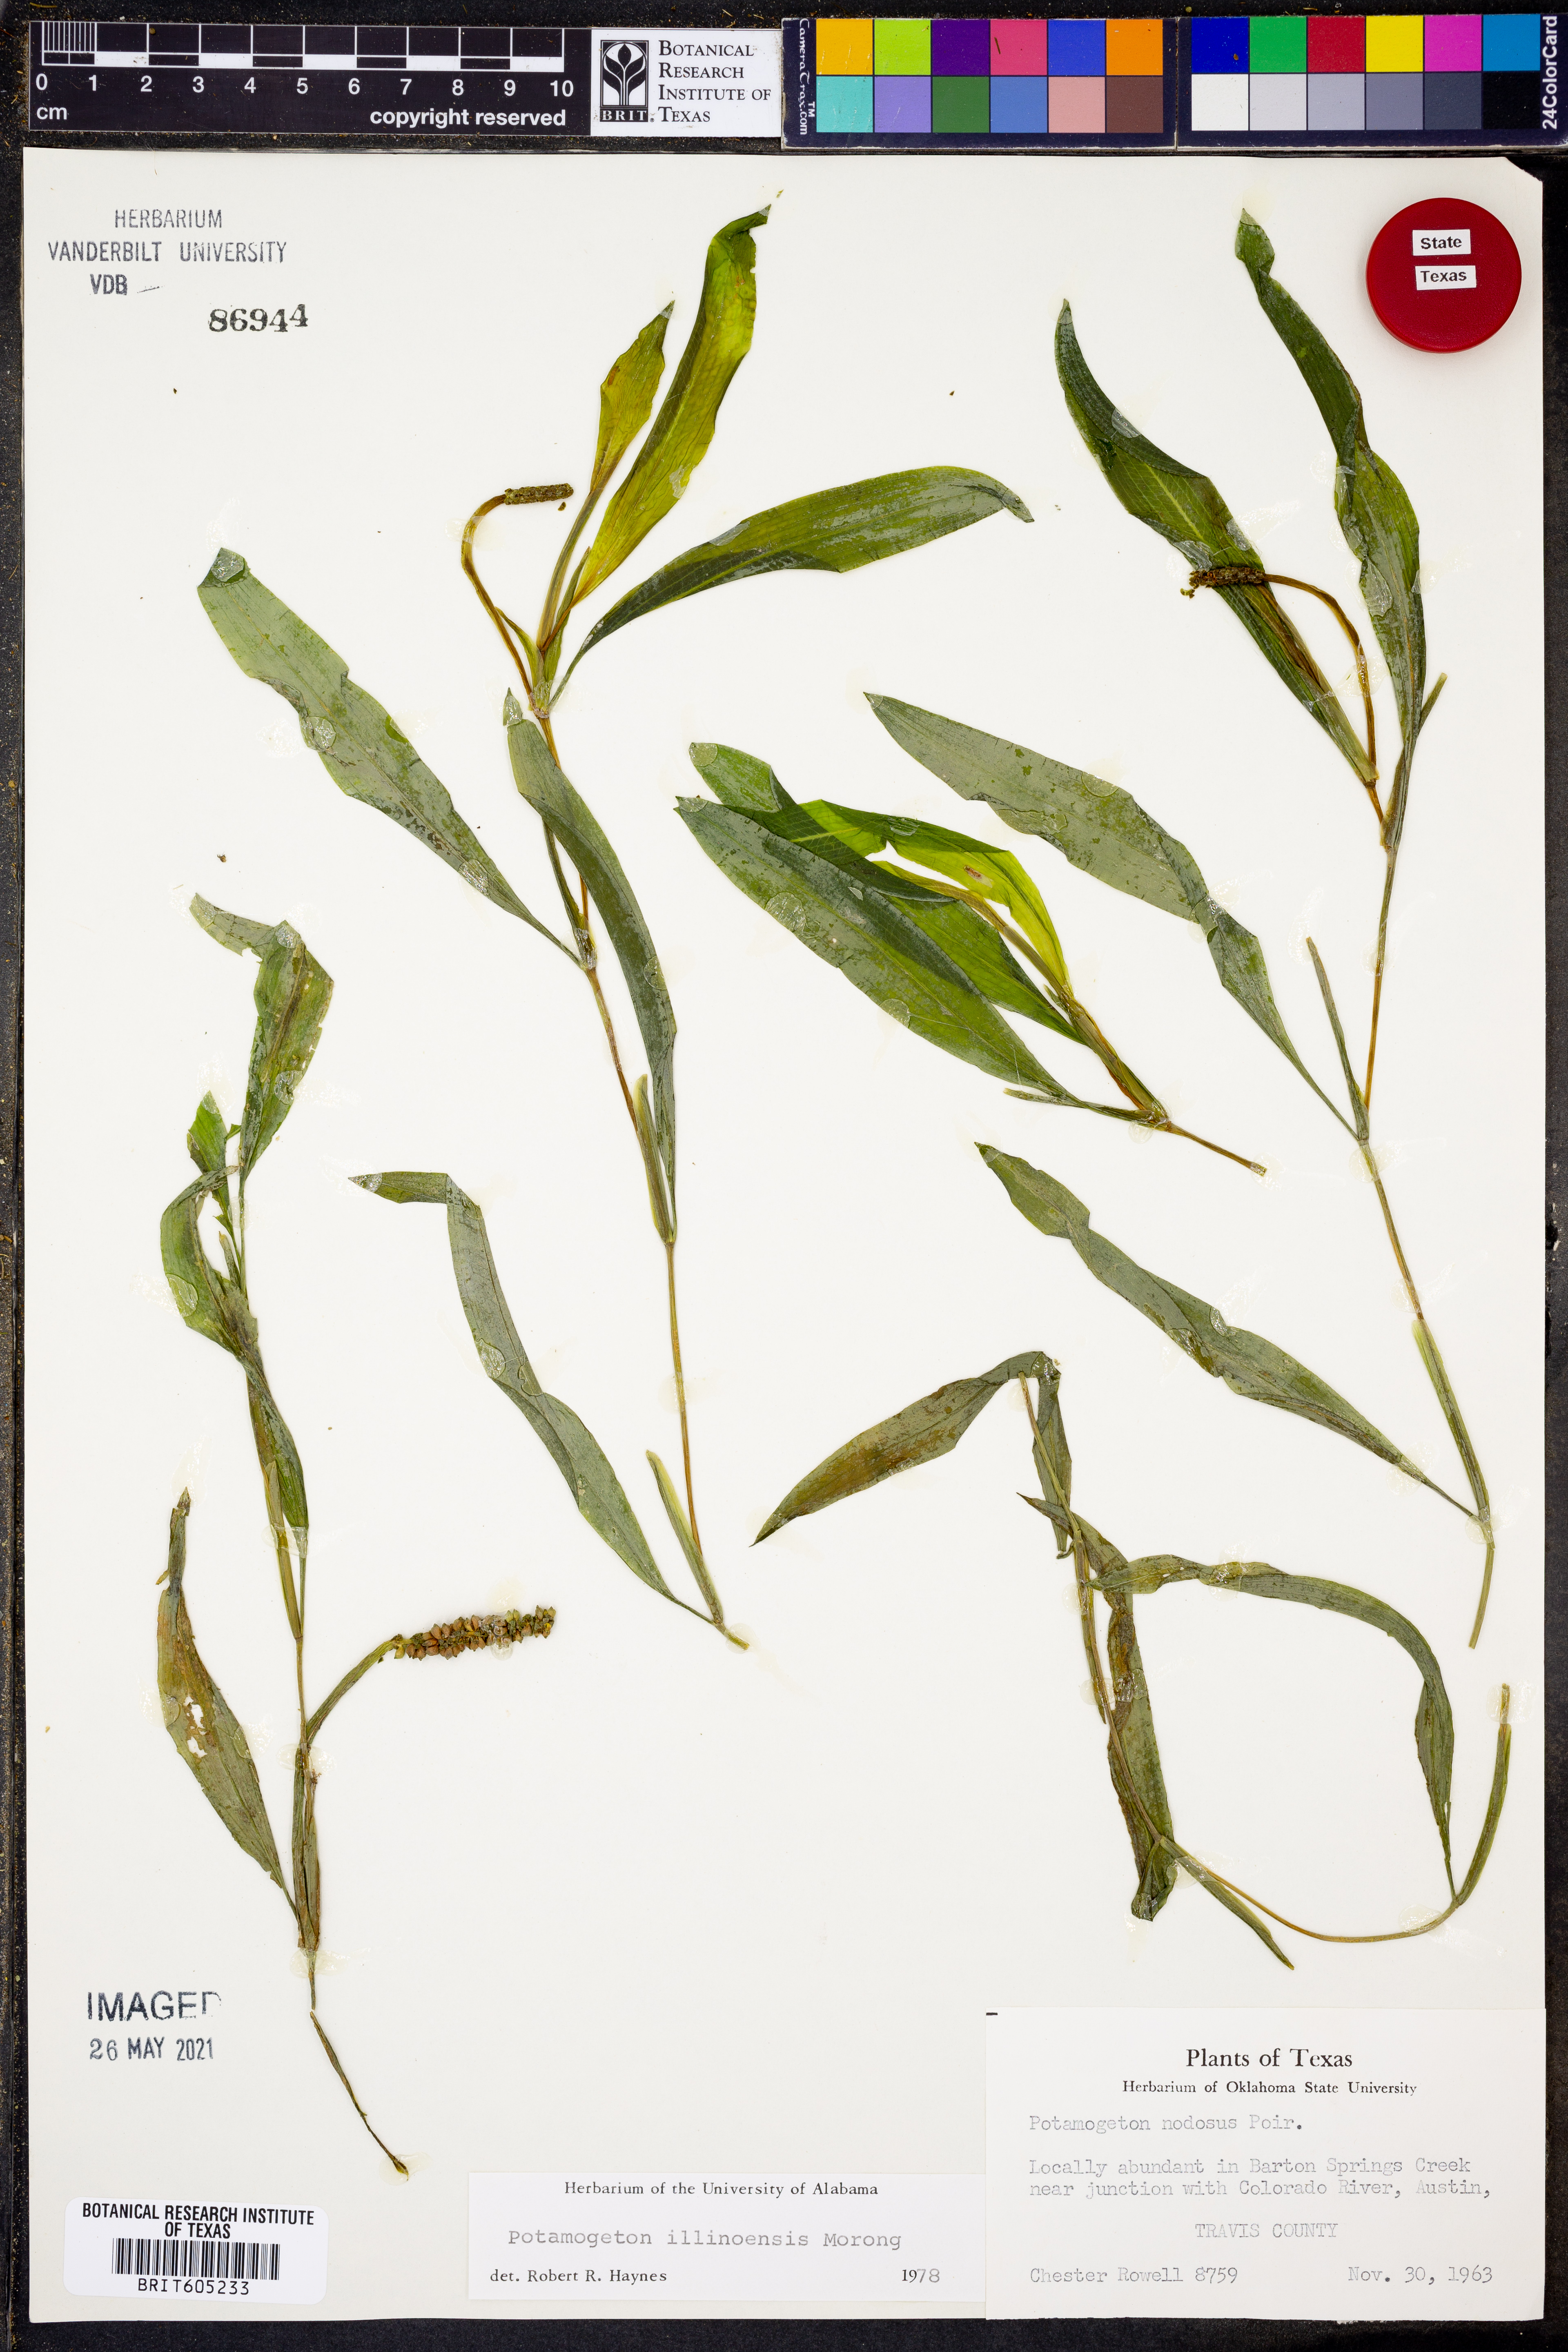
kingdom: Plantae
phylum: Tracheophyta
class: Liliopsida
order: Alismatales
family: Potamogetonaceae
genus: Potamogeton
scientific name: Potamogeton illinoensis
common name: Illinois pondweed
